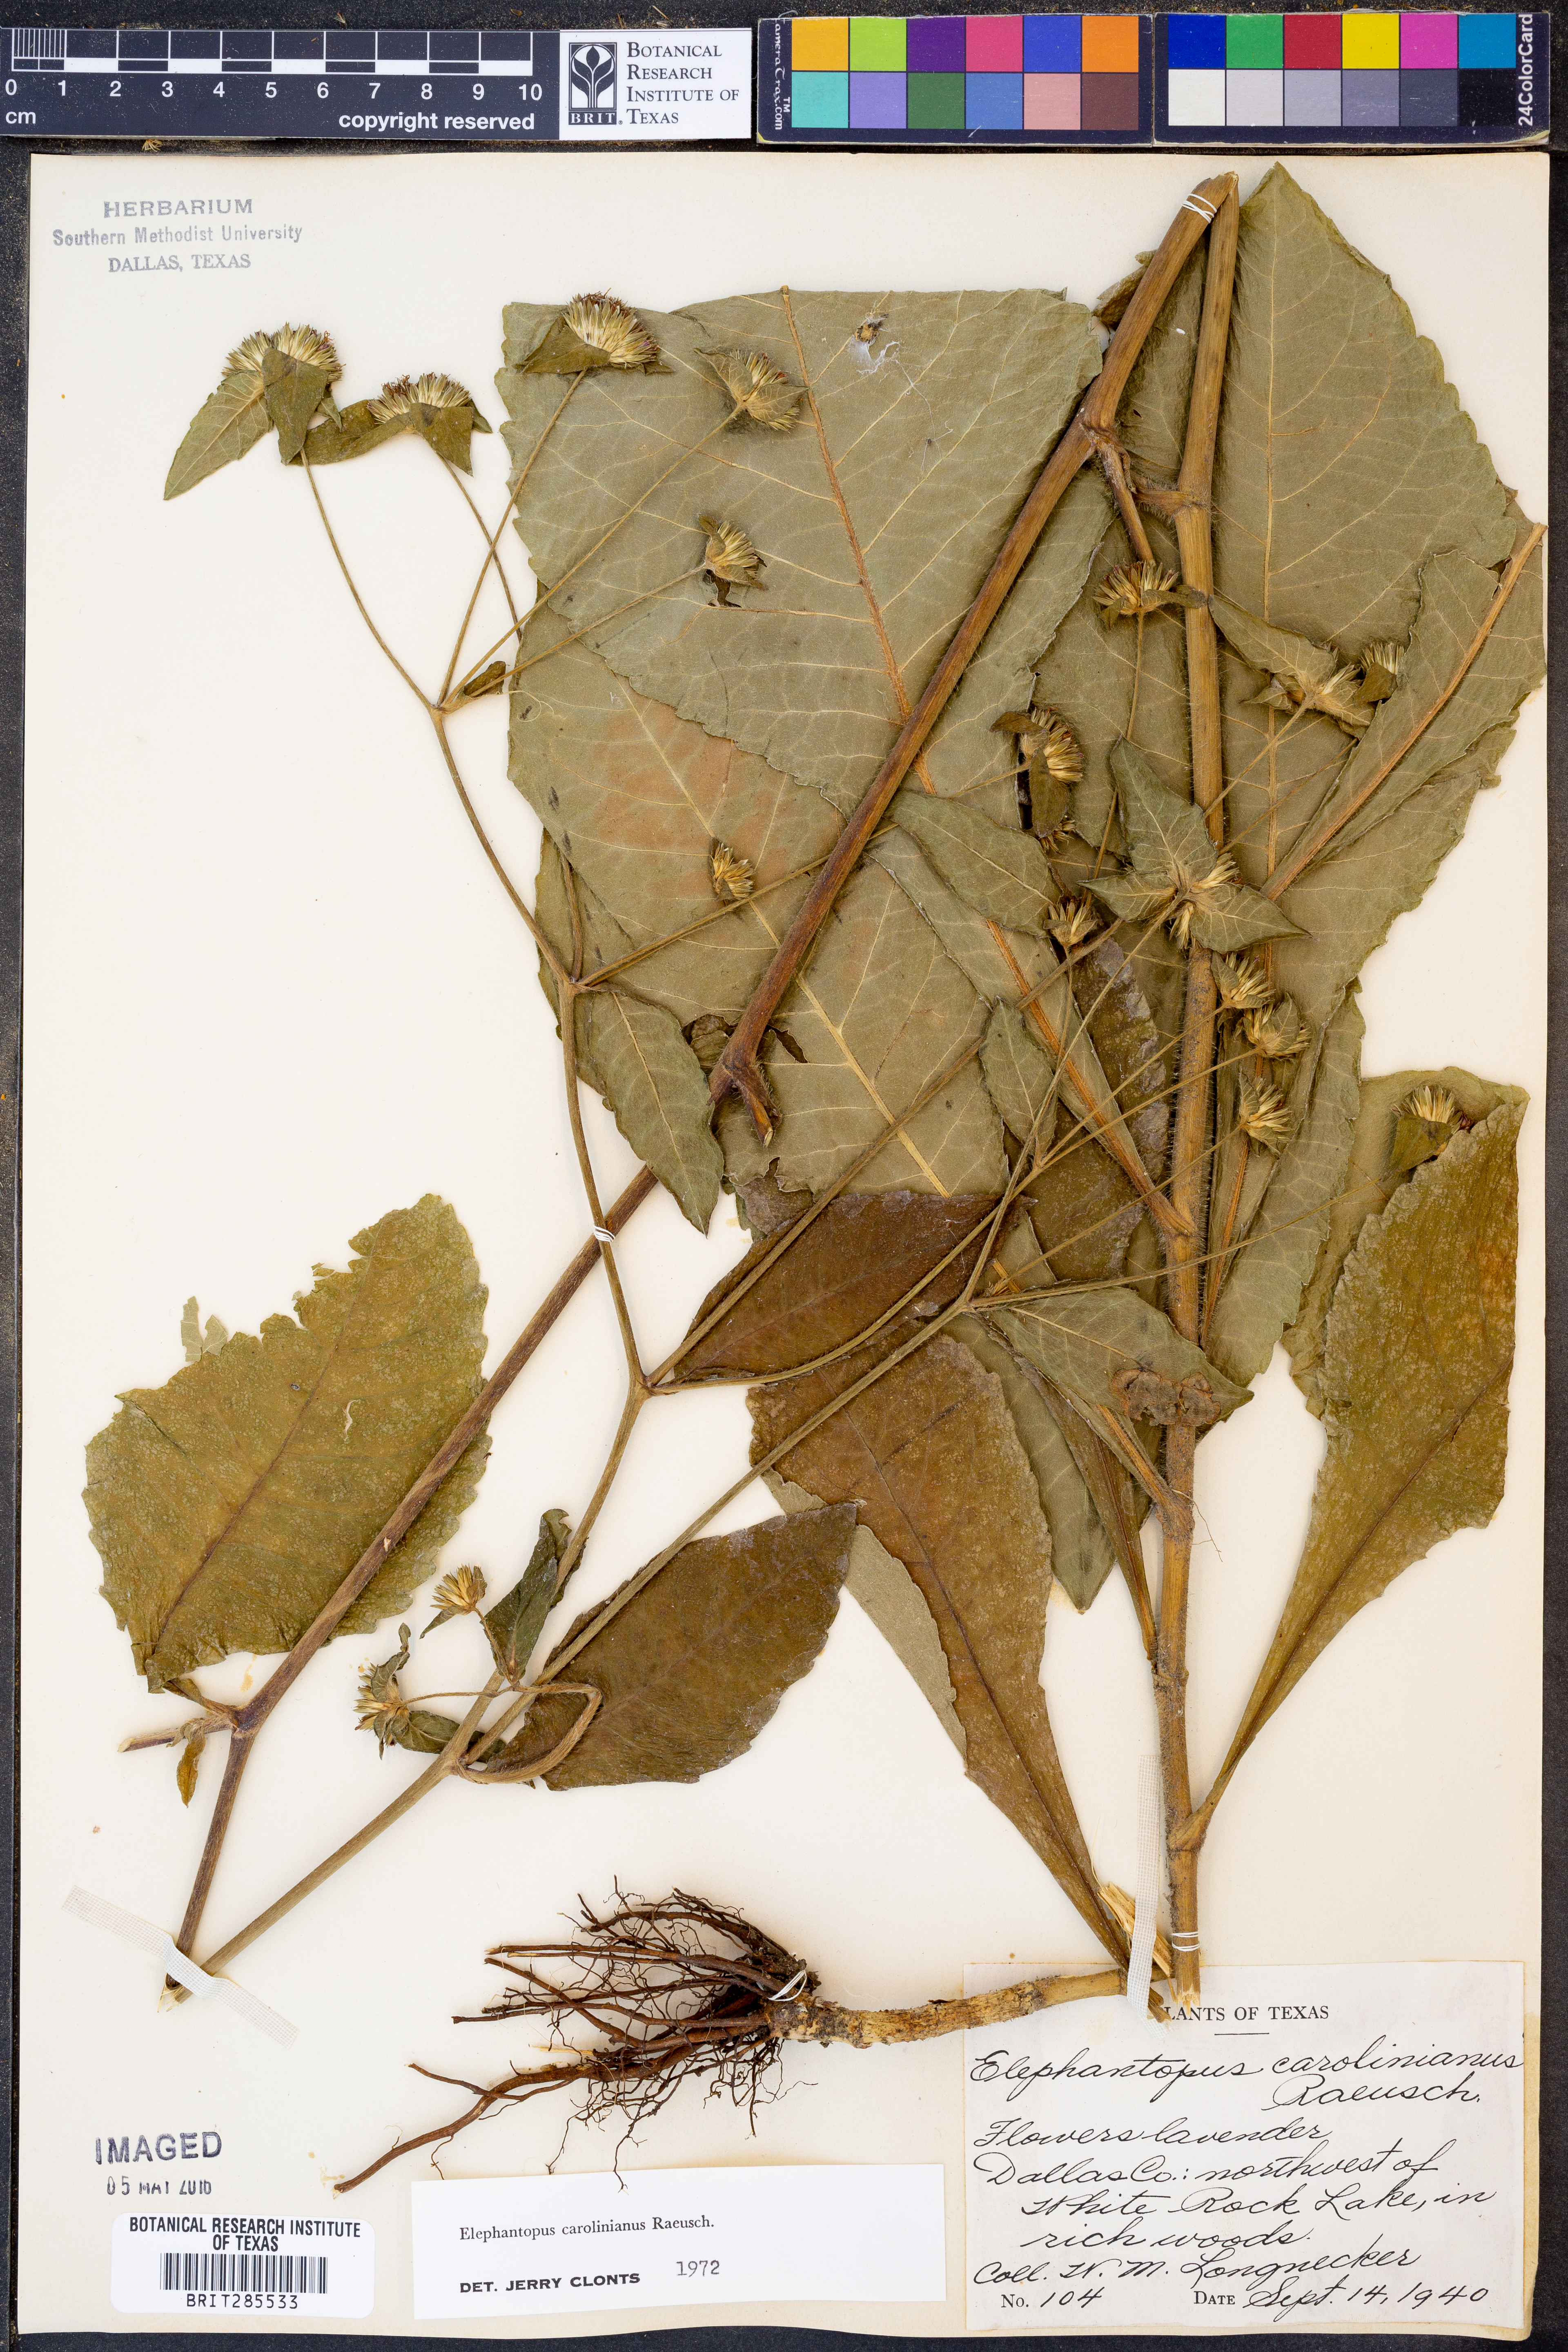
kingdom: Plantae
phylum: Tracheophyta
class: Magnoliopsida
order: Asterales
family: Asteraceae
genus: Elephantopus
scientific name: Elephantopus carolinianus
